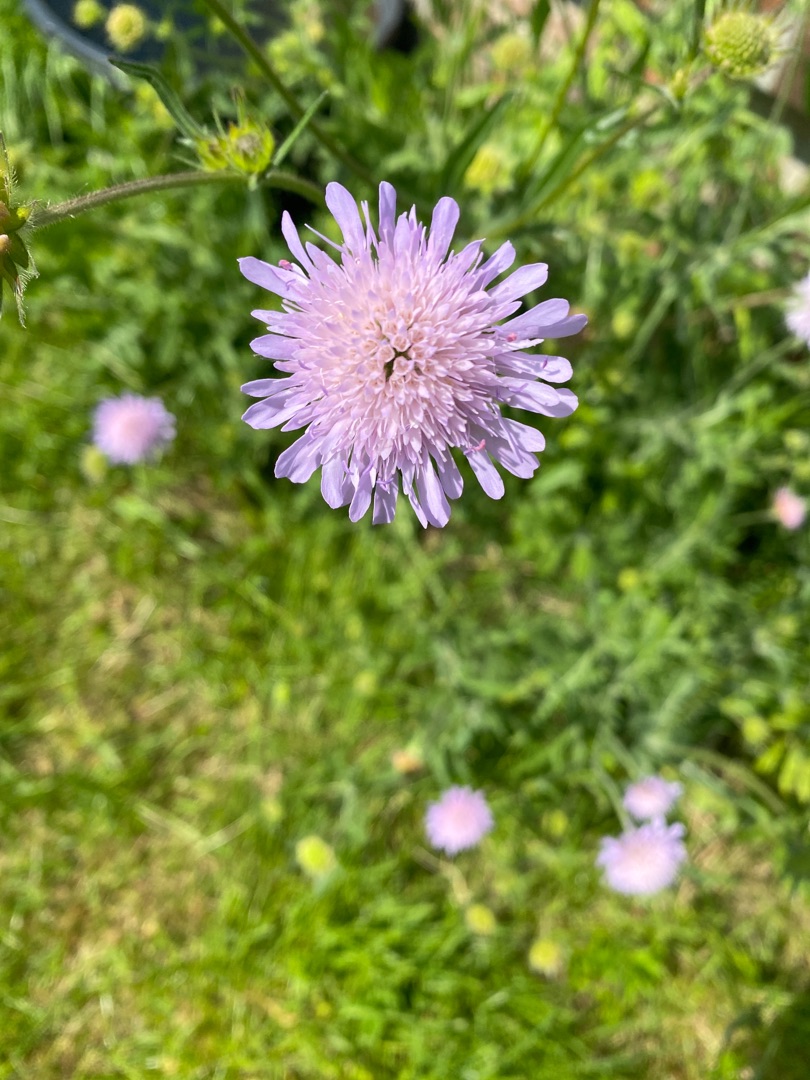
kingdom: Plantae
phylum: Tracheophyta
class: Magnoliopsida
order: Dipsacales
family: Caprifoliaceae
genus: Knautia
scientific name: Knautia arvensis
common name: Blåhat
